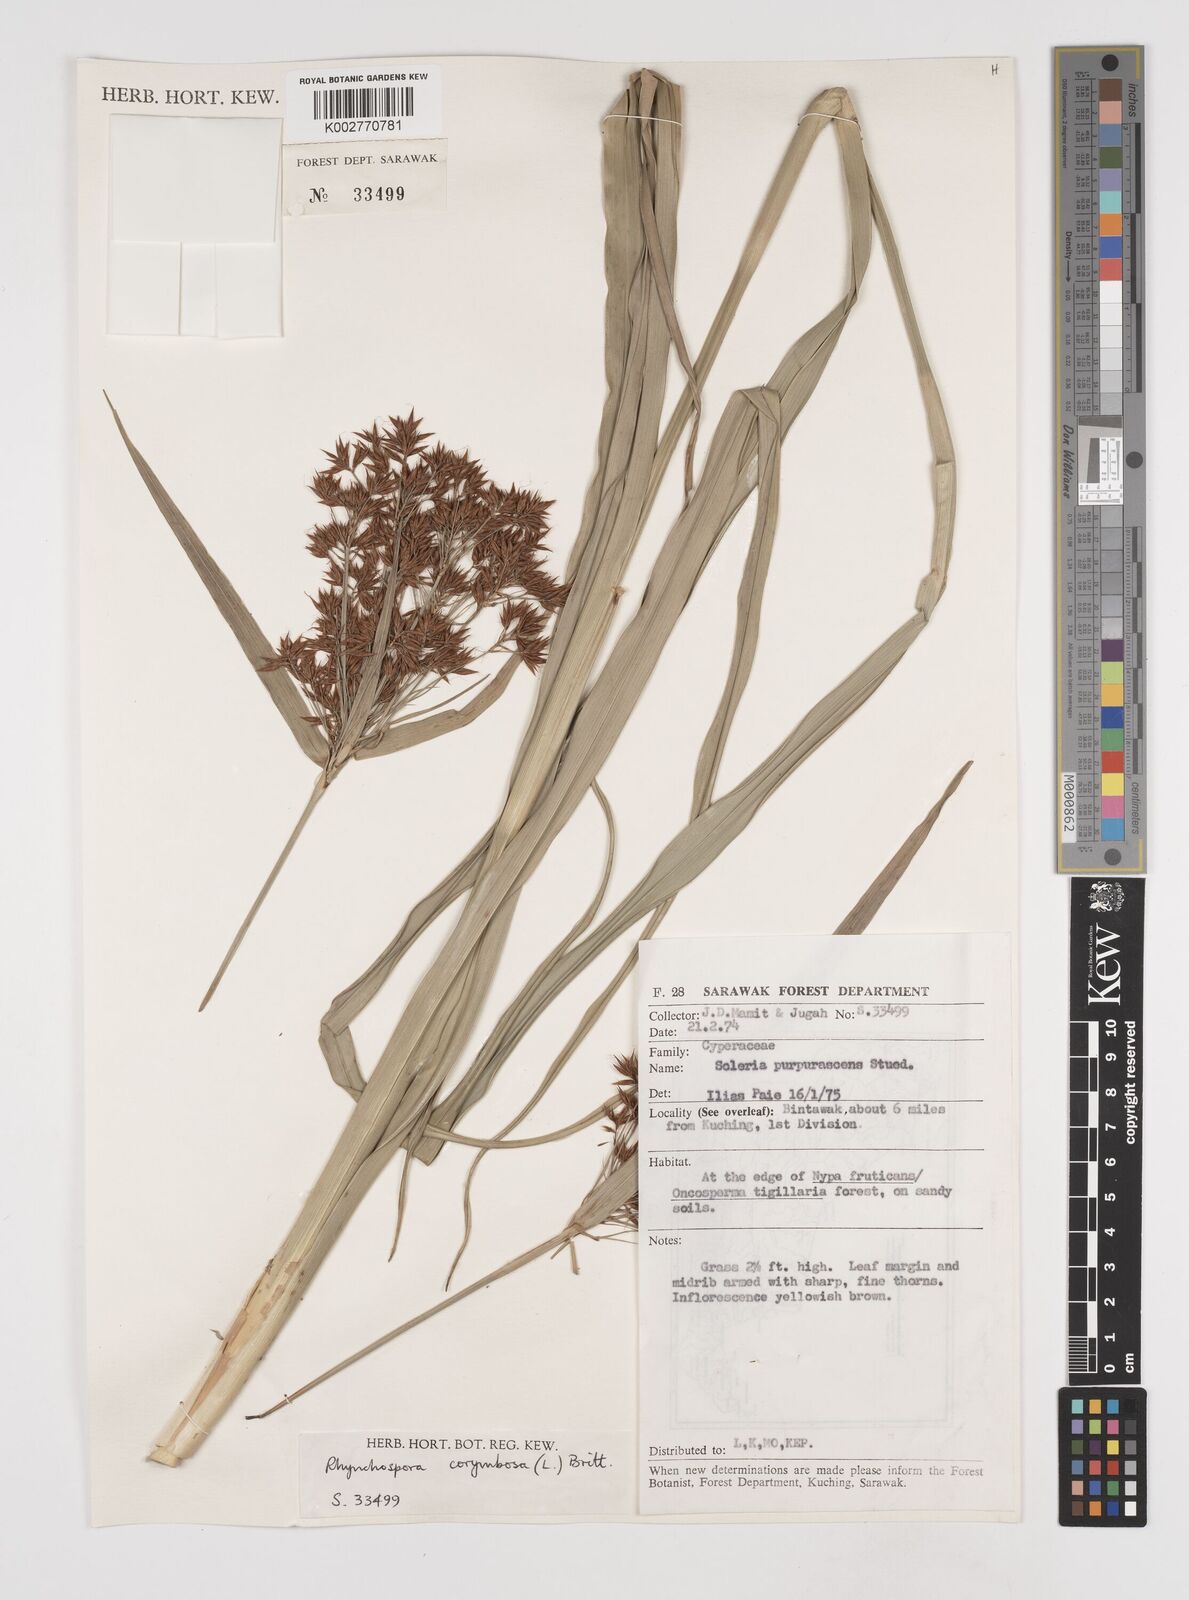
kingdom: Plantae
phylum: Tracheophyta
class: Liliopsida
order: Poales
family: Cyperaceae
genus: Rhynchospora
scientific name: Rhynchospora corymbosa
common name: Golden beak sedge
